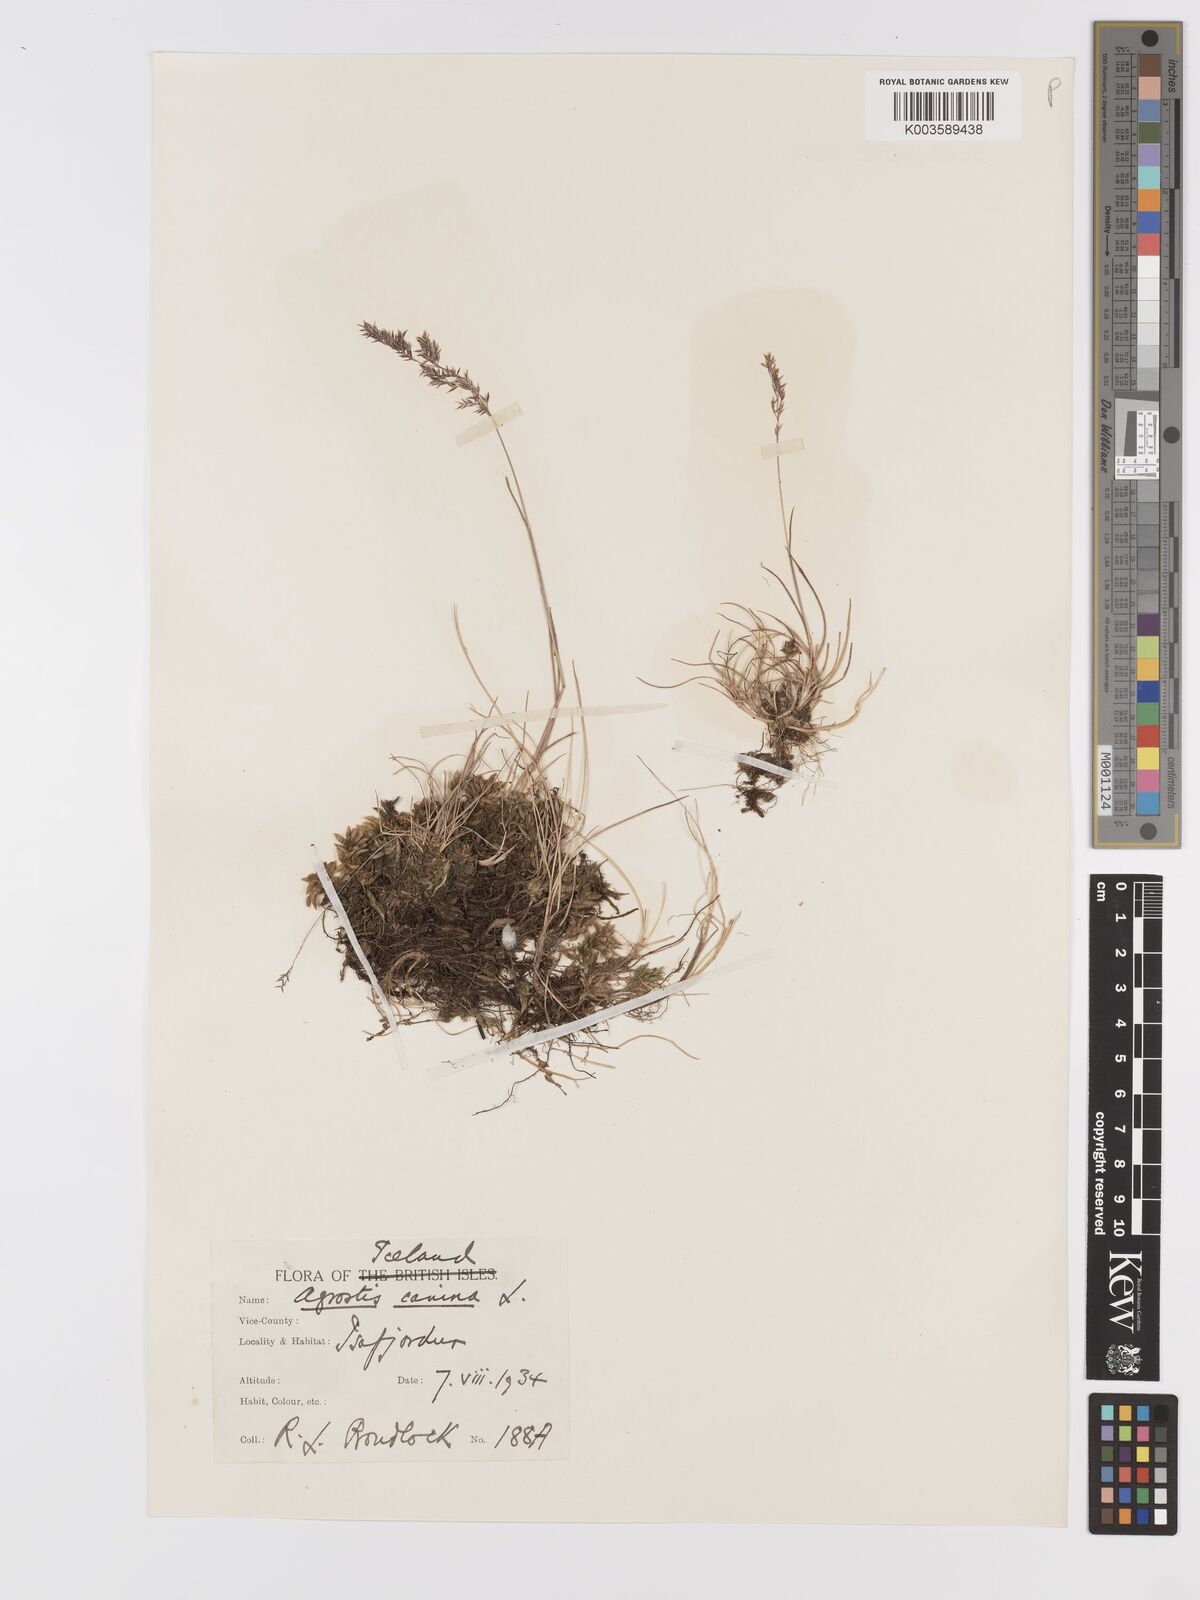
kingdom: Plantae
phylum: Tracheophyta
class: Liliopsida
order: Poales
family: Poaceae
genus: Agrostis
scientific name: Agrostis canina
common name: Velvet bent
